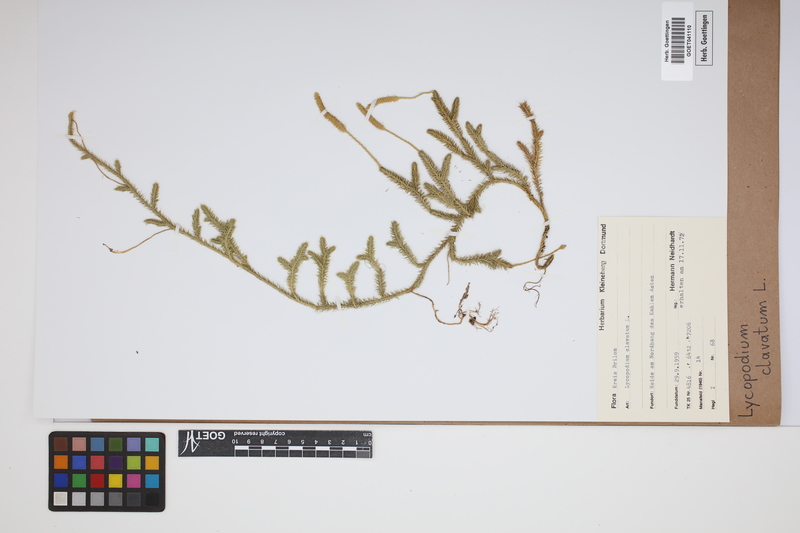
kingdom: Plantae
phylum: Tracheophyta
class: Lycopodiopsida
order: Lycopodiales
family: Lycopodiaceae
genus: Lycopodium
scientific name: Lycopodium clavatum
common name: Stag's-horn clubmoss
